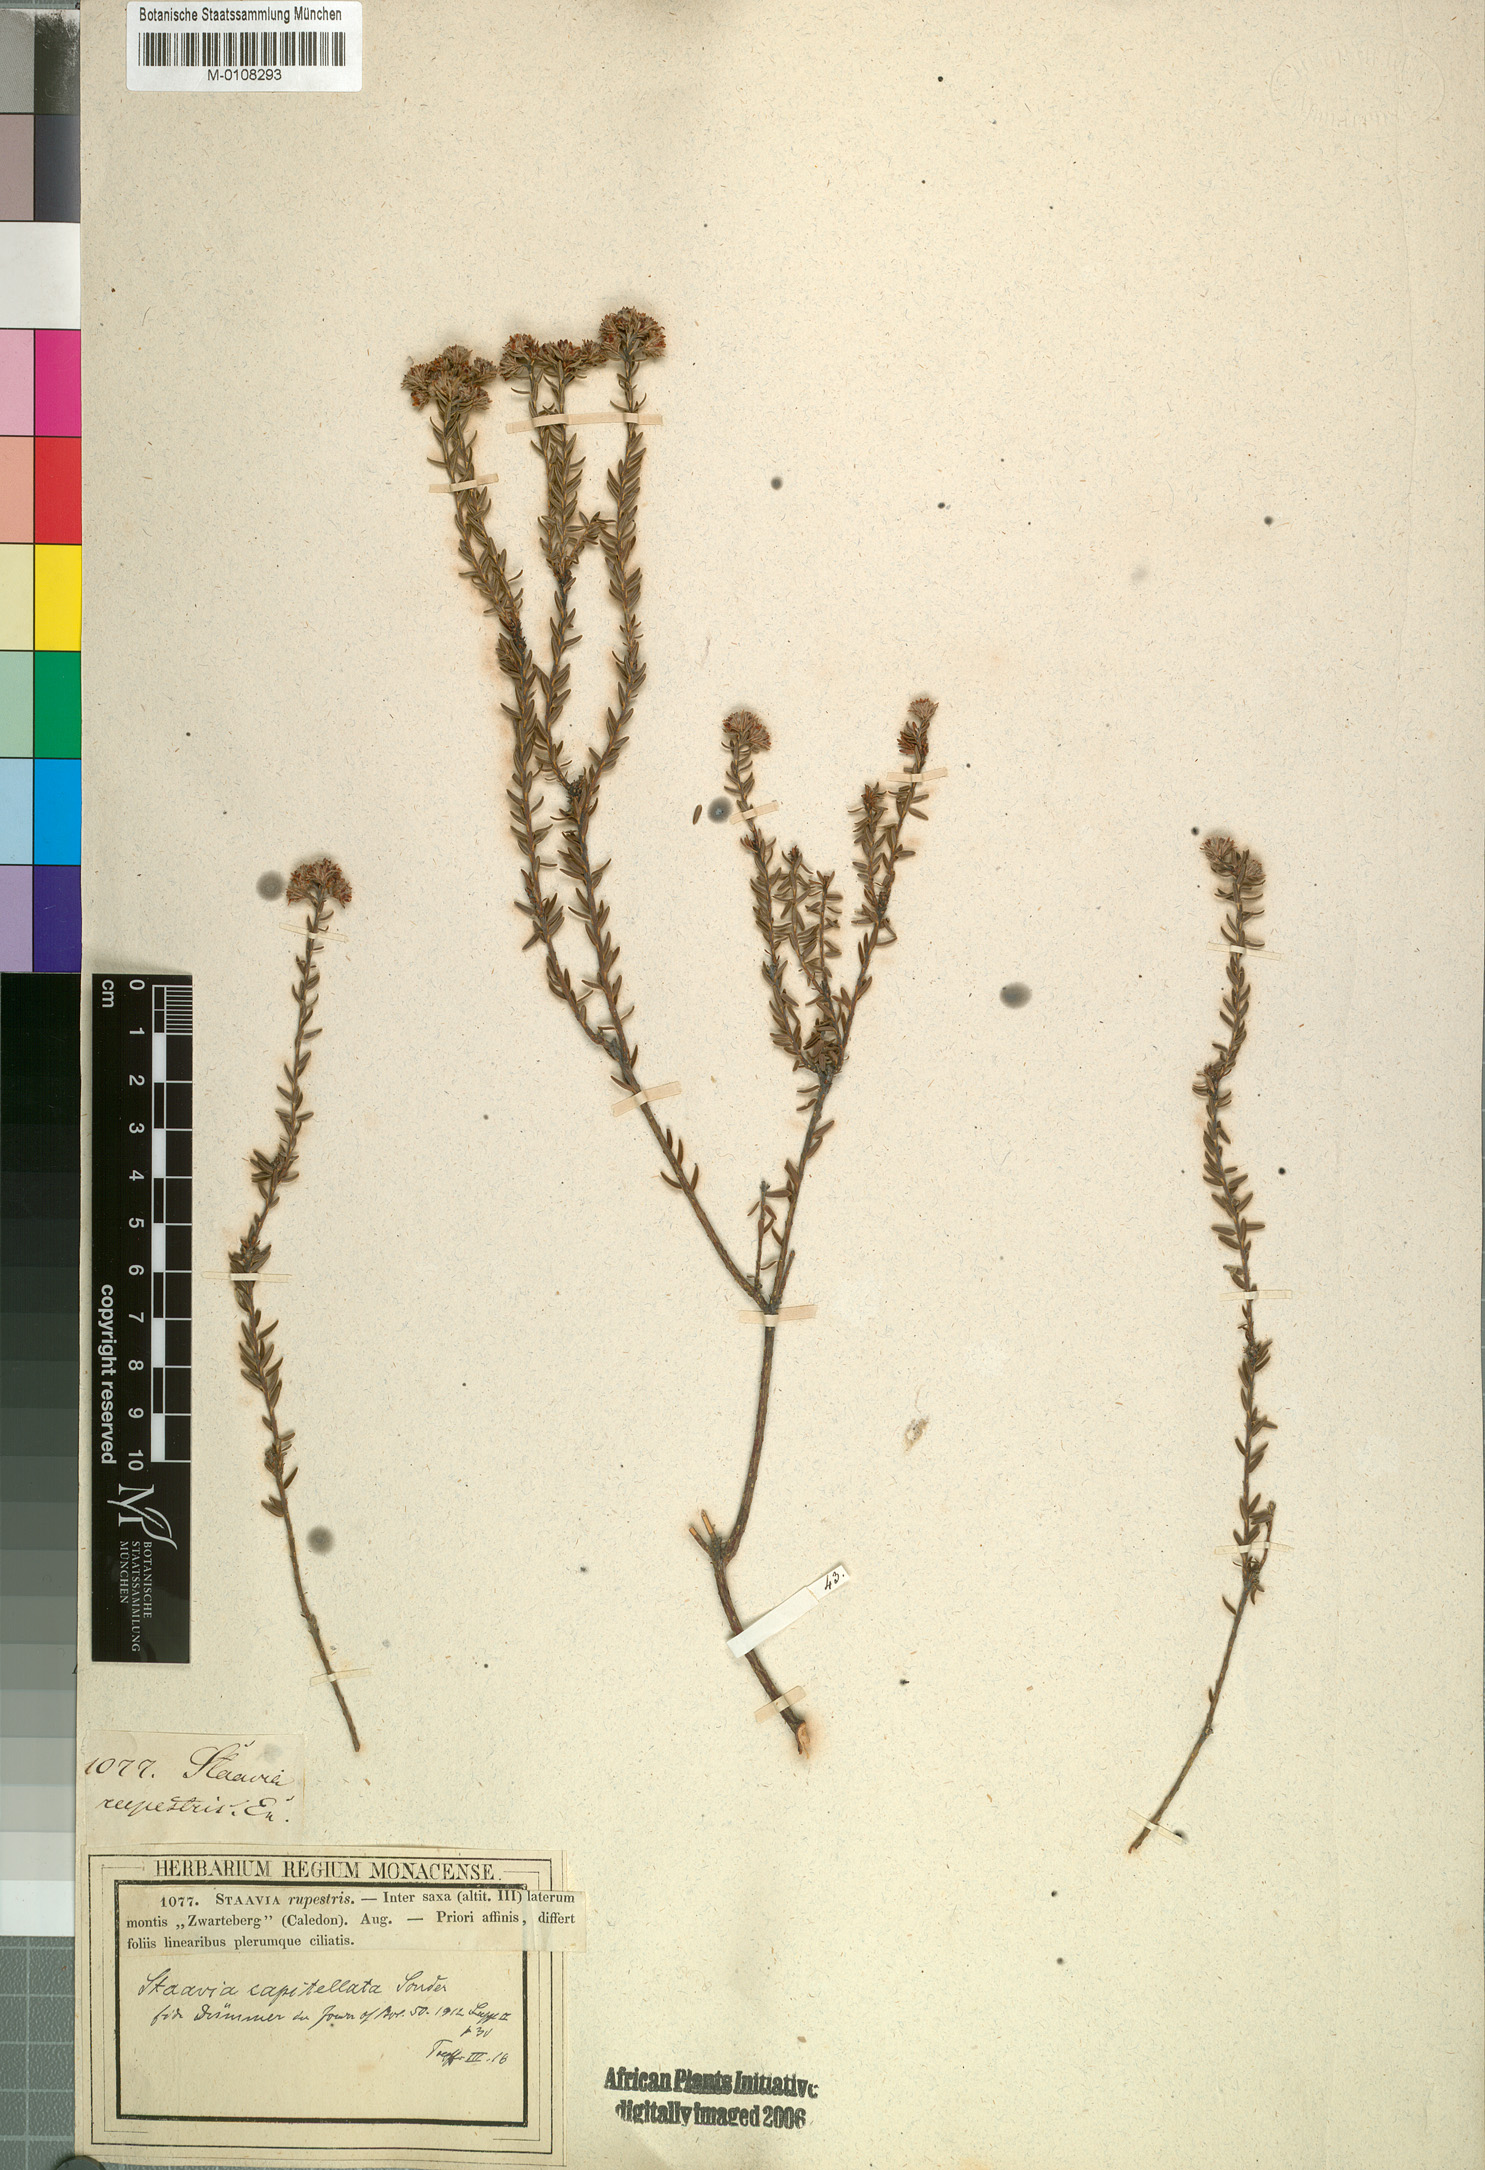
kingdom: Plantae
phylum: Tracheophyta
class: Magnoliopsida
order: Bruniales
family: Bruniaceae
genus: Staavia
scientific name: Staavia capitella
